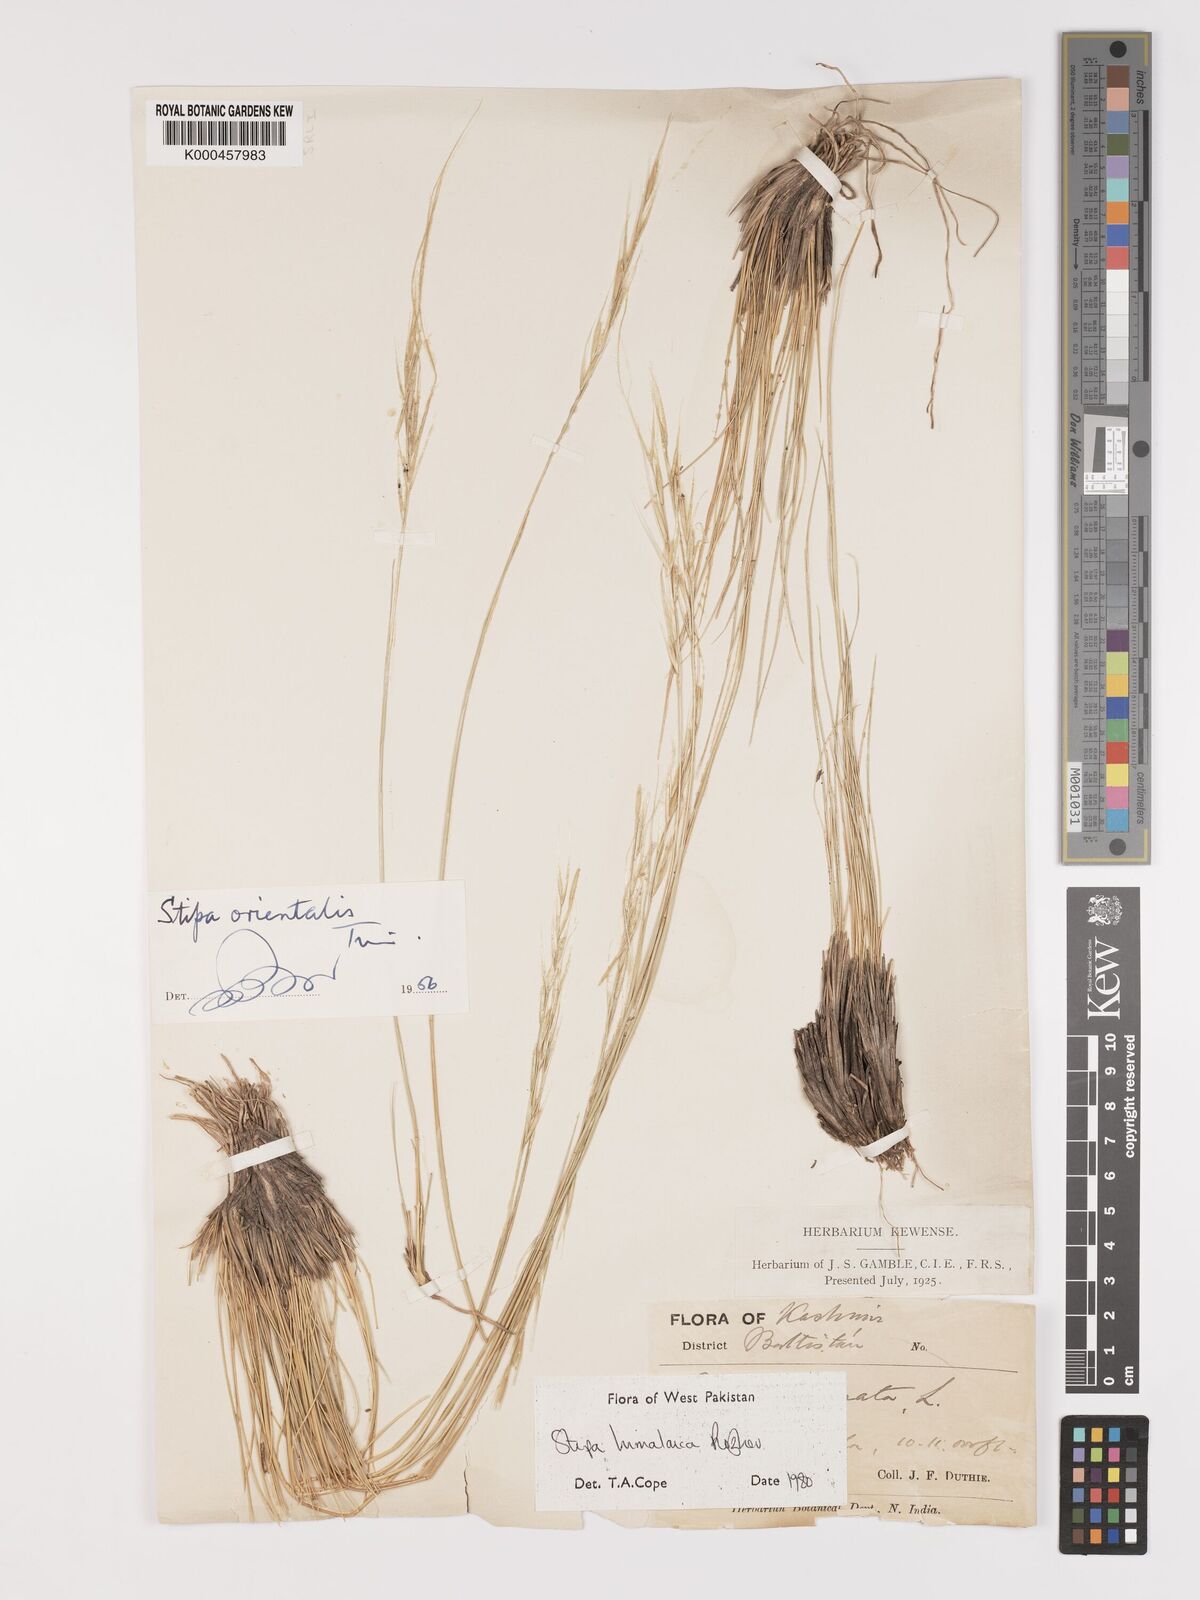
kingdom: Plantae
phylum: Tracheophyta
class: Liliopsida
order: Poales
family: Poaceae
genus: Stipa
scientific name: Stipa himalaica
